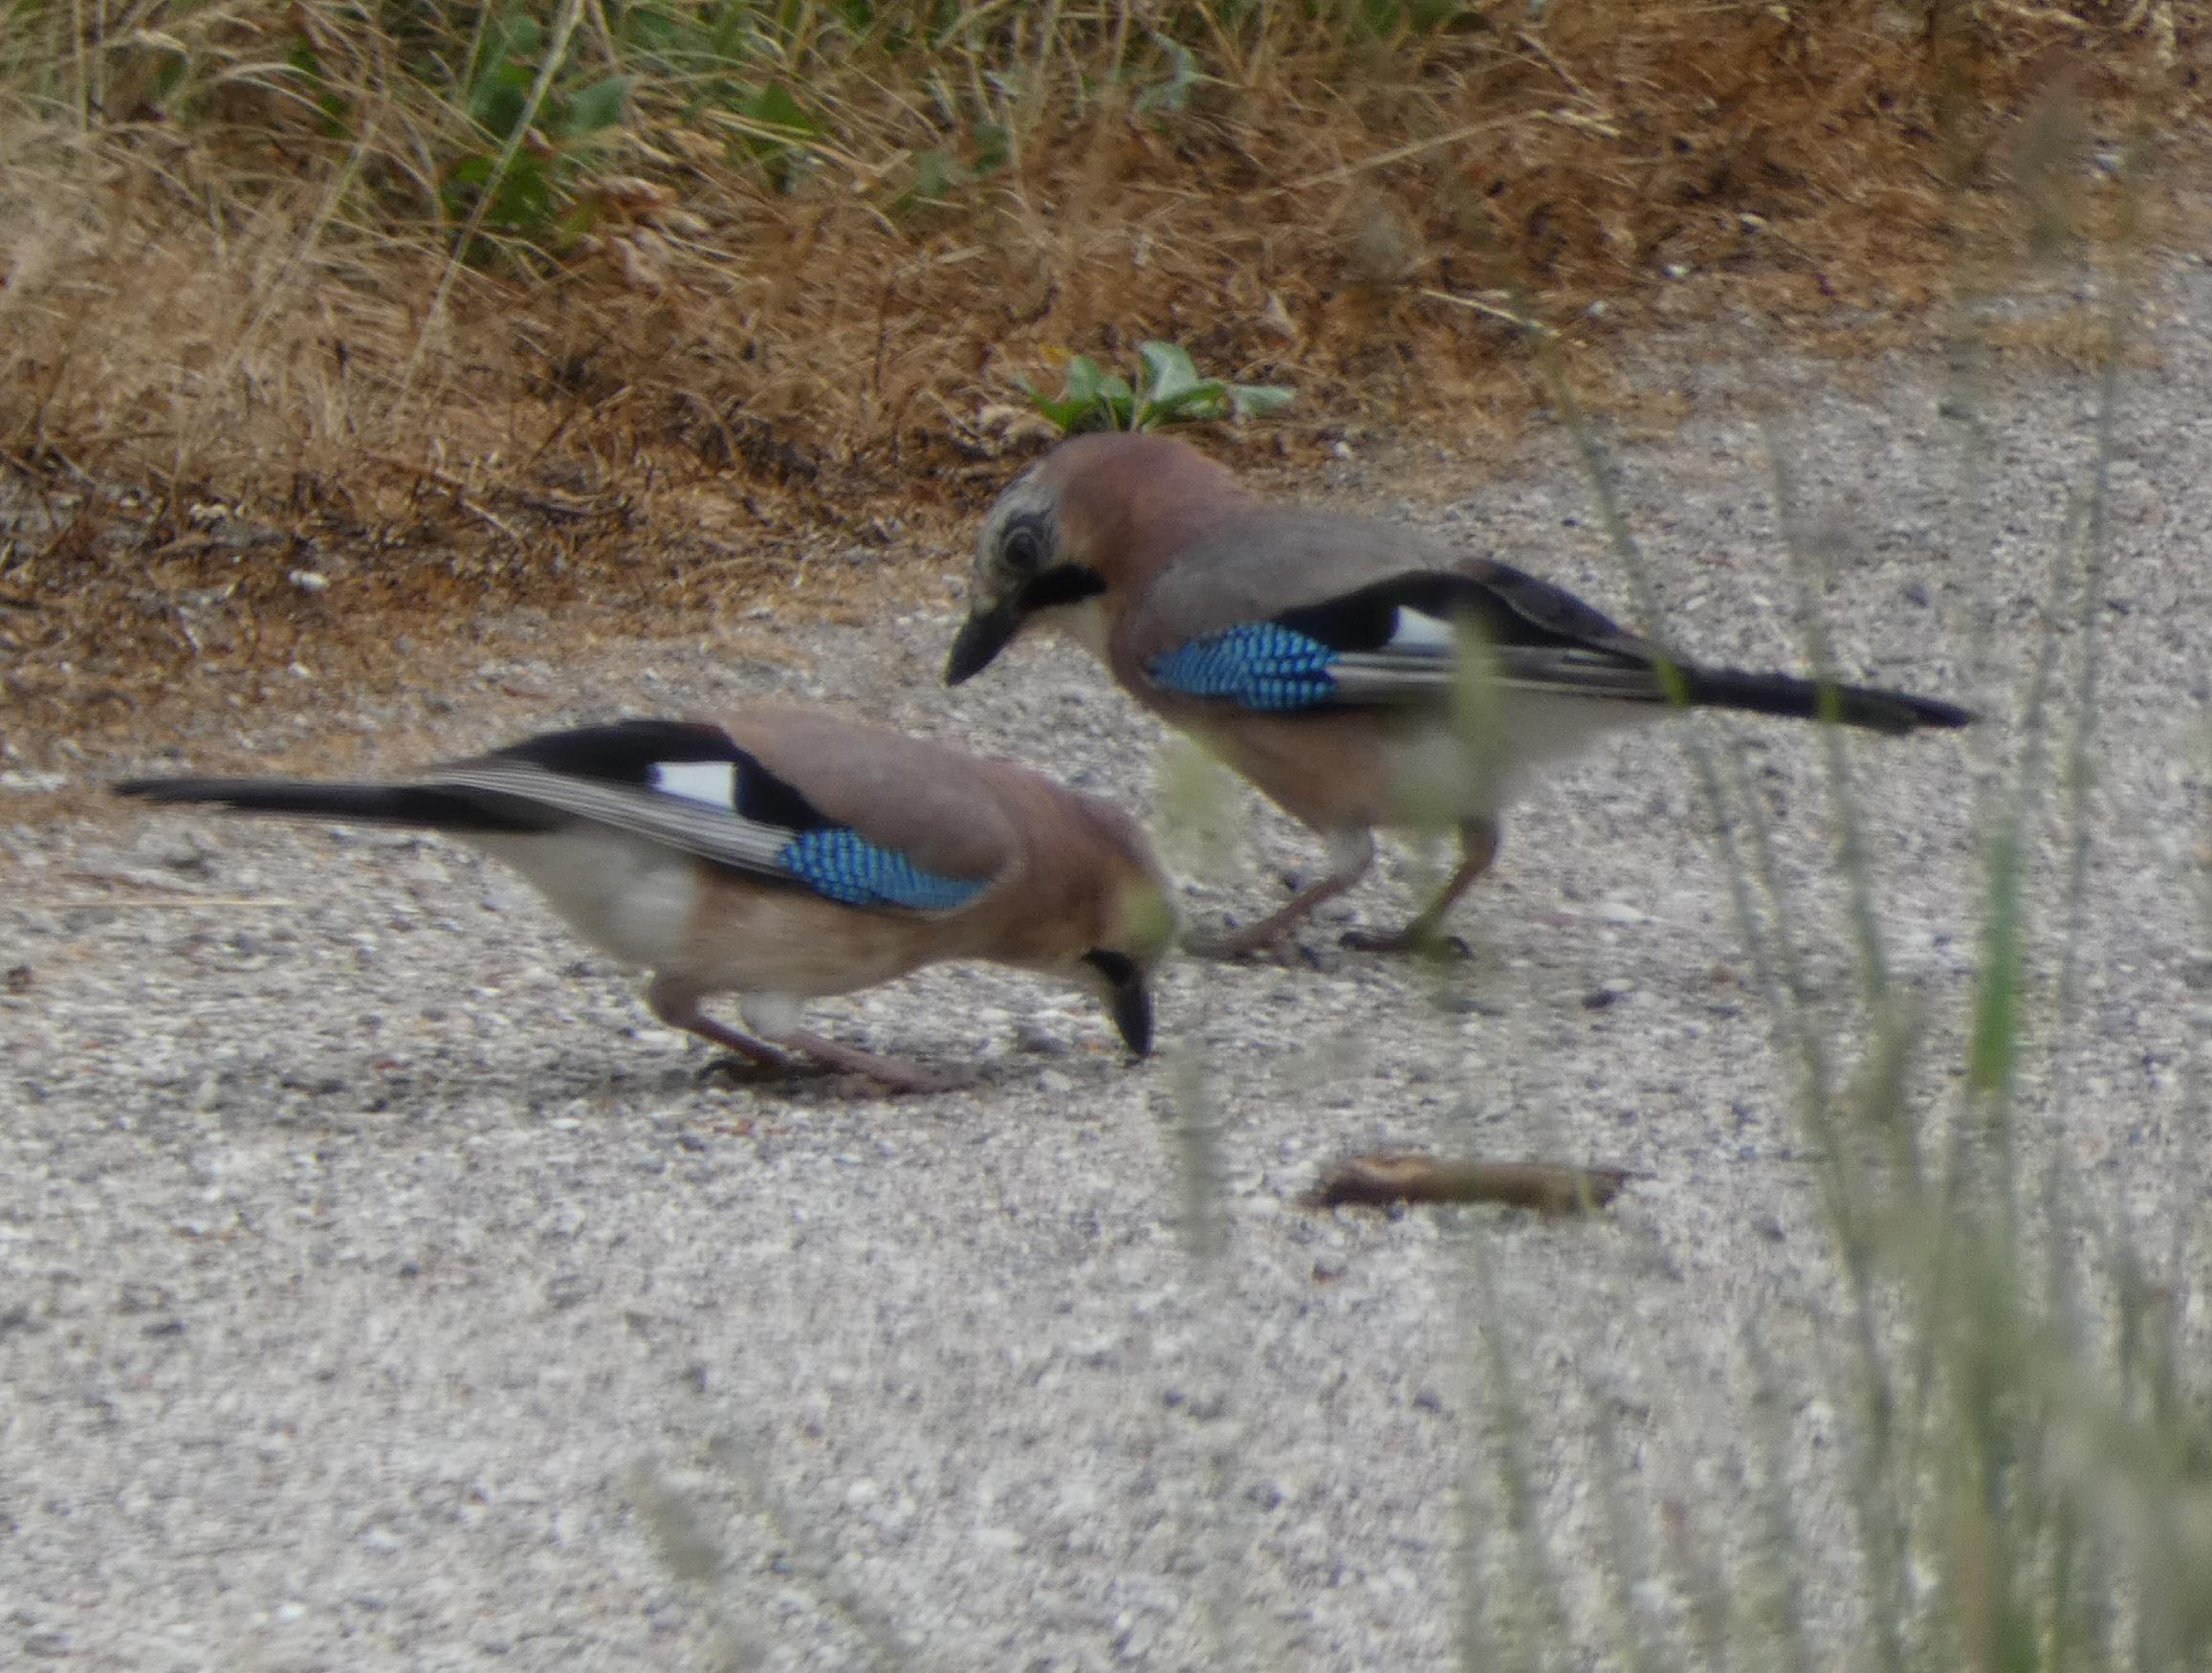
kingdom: Animalia
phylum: Chordata
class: Aves
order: Passeriformes
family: Corvidae
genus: Garrulus
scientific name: Garrulus glandarius
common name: Skovskade
